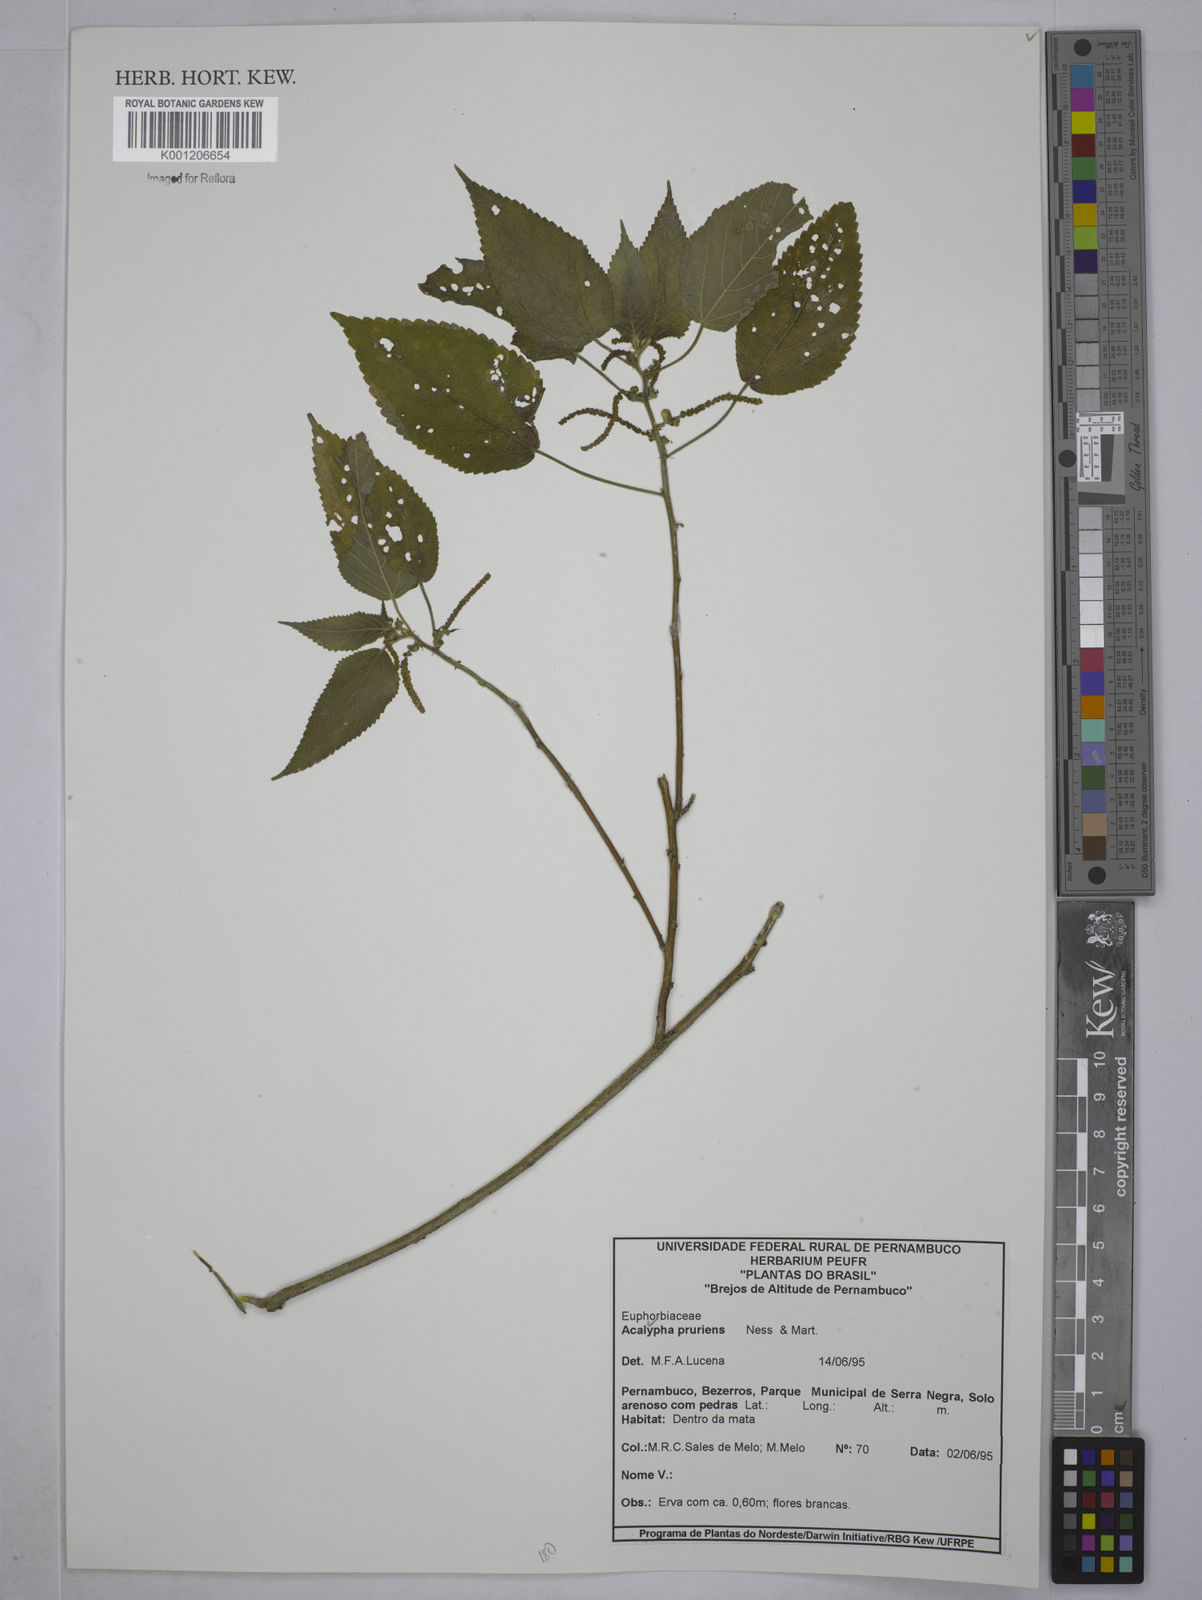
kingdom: Plantae
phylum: Tracheophyta
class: Magnoliopsida
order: Malpighiales
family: Euphorbiaceae
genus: Acalypha
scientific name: Acalypha pruriens
